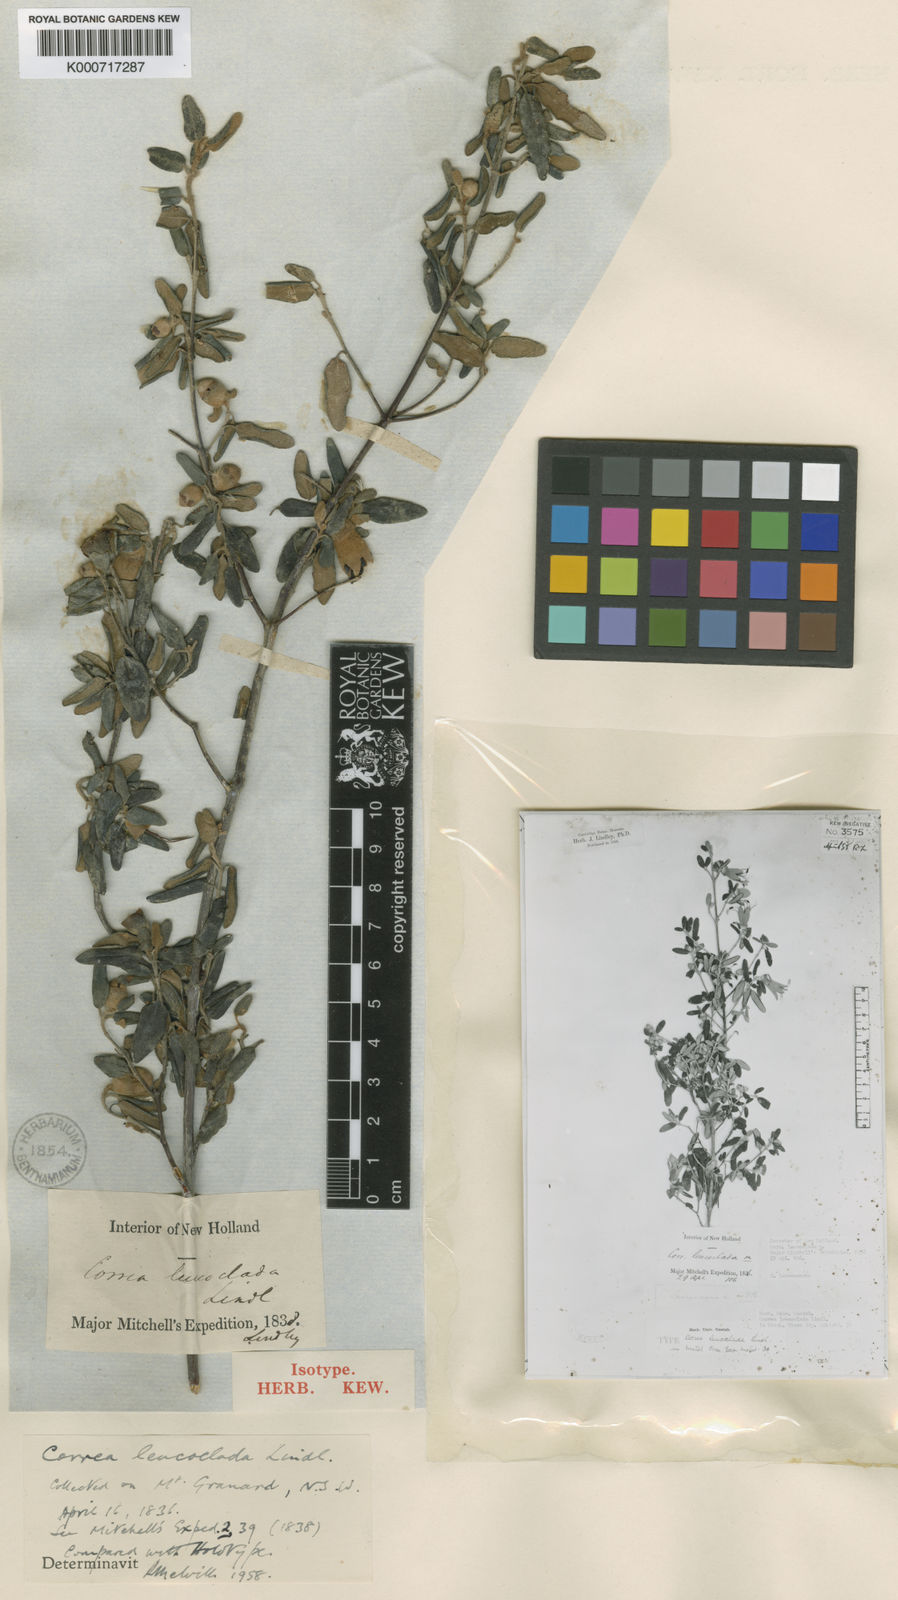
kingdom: Plantae
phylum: Tracheophyta
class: Magnoliopsida
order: Sapindales
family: Rutaceae
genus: Correa
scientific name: Correa glabra
